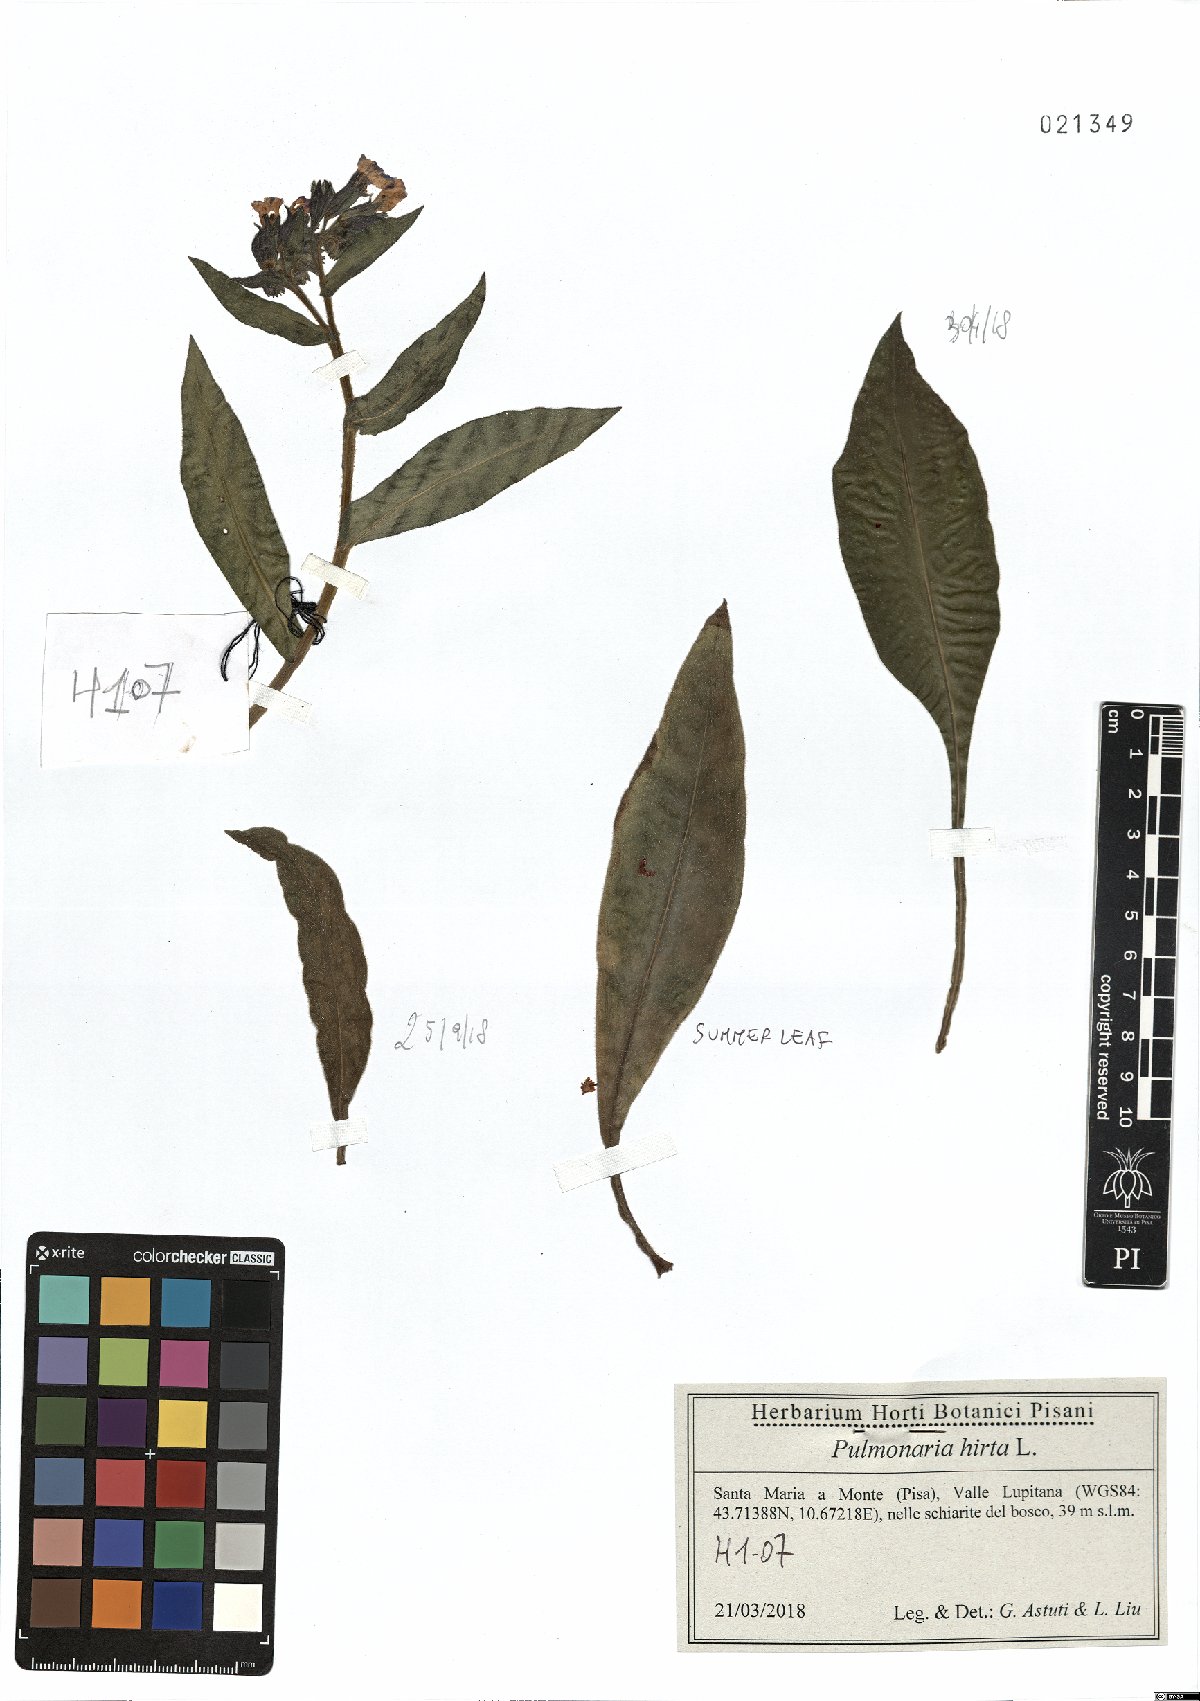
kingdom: Plantae
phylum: Tracheophyta
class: Magnoliopsida
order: Boraginales
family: Boraginaceae
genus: Pulmonaria
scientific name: Pulmonaria hirta
